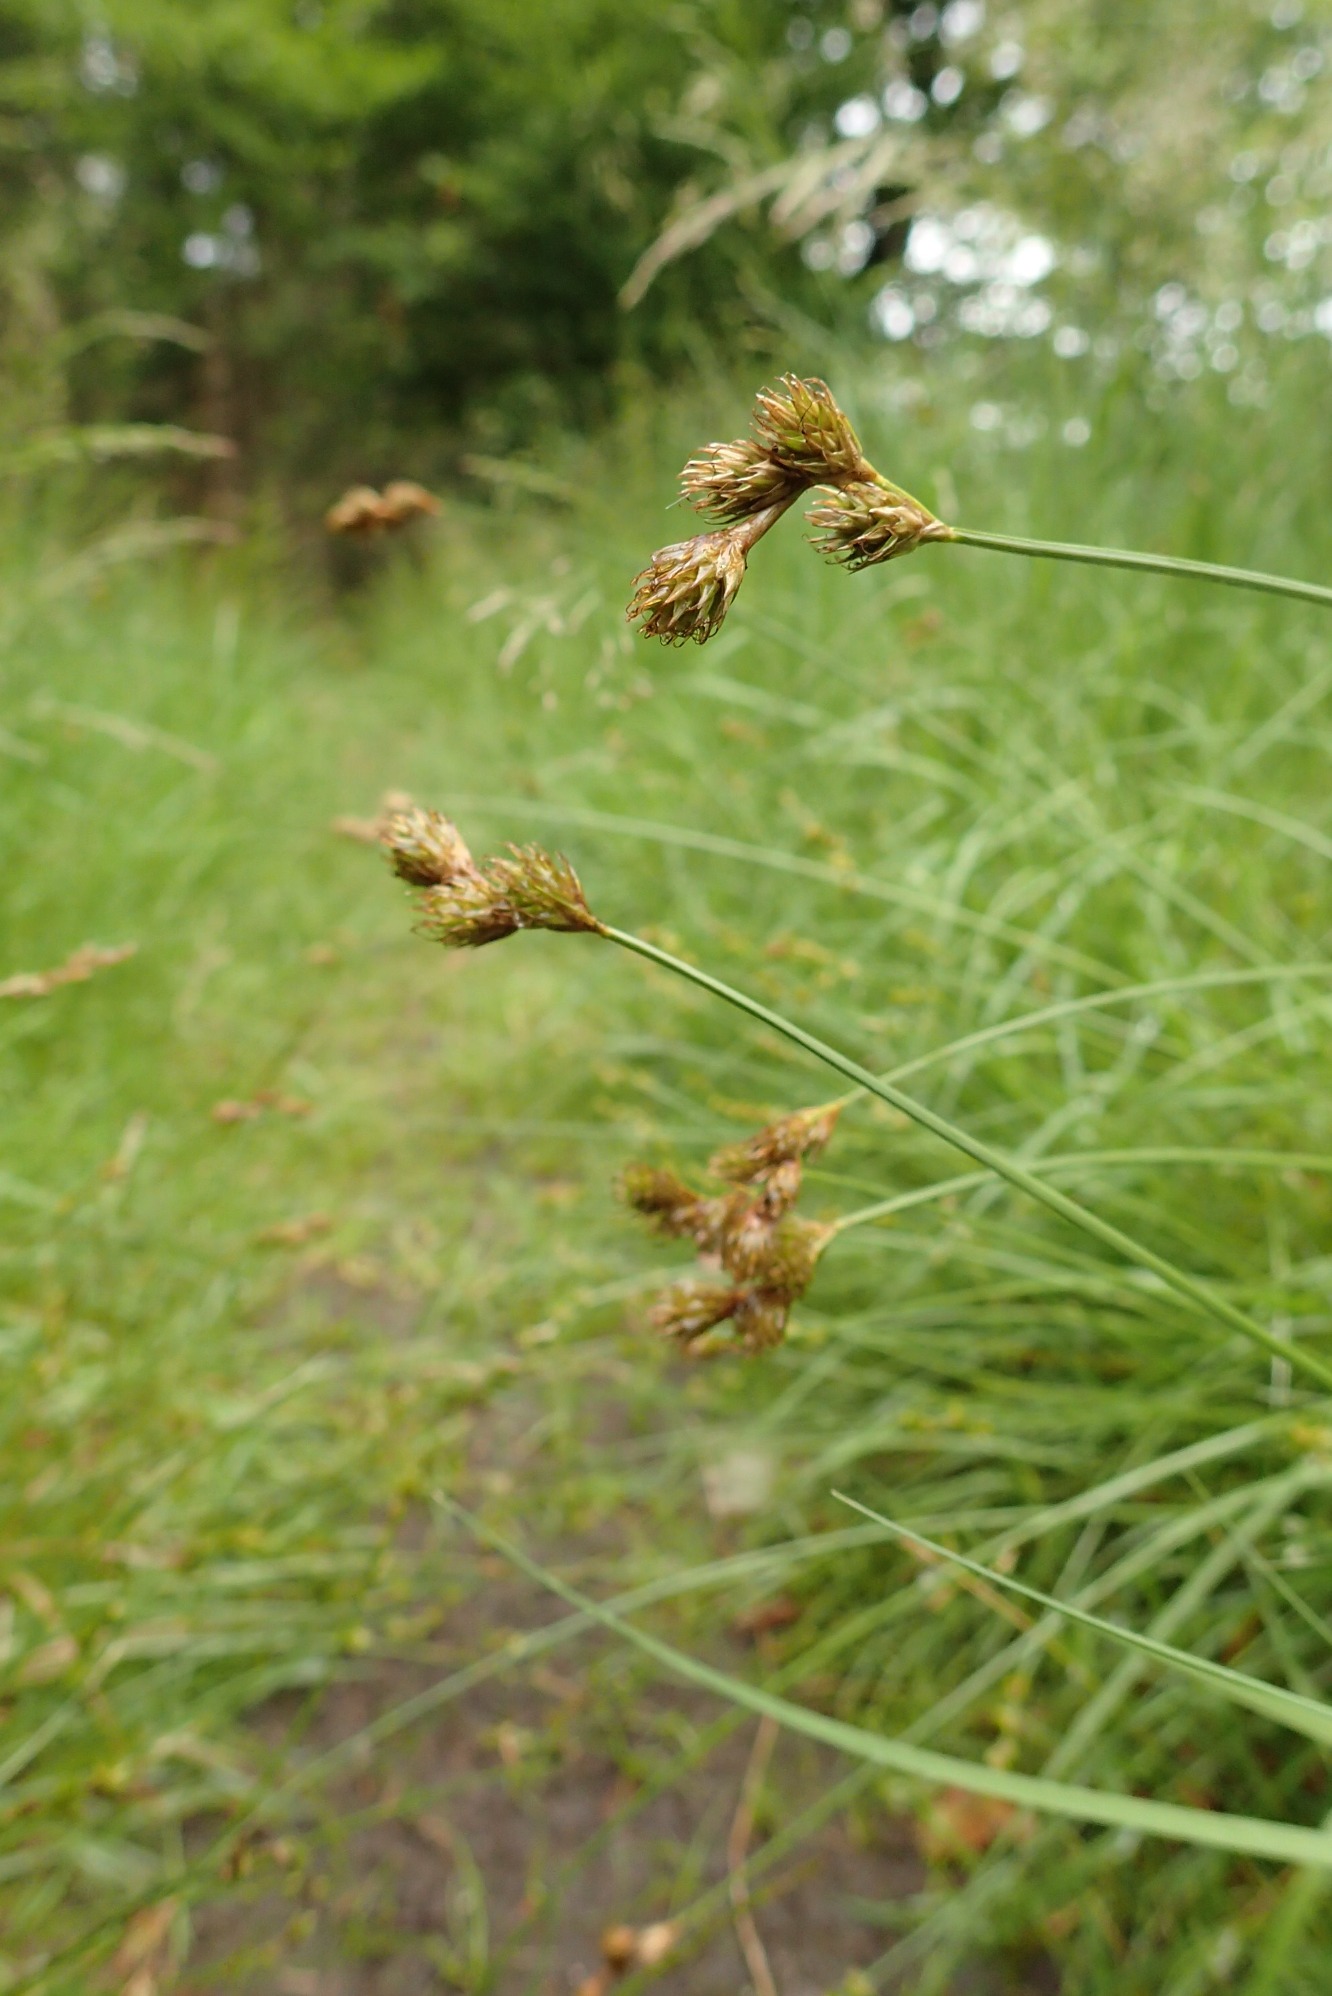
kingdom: Plantae
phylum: Tracheophyta
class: Liliopsida
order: Poales
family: Cyperaceae
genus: Carex
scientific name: Carex leporina
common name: Hare-star
